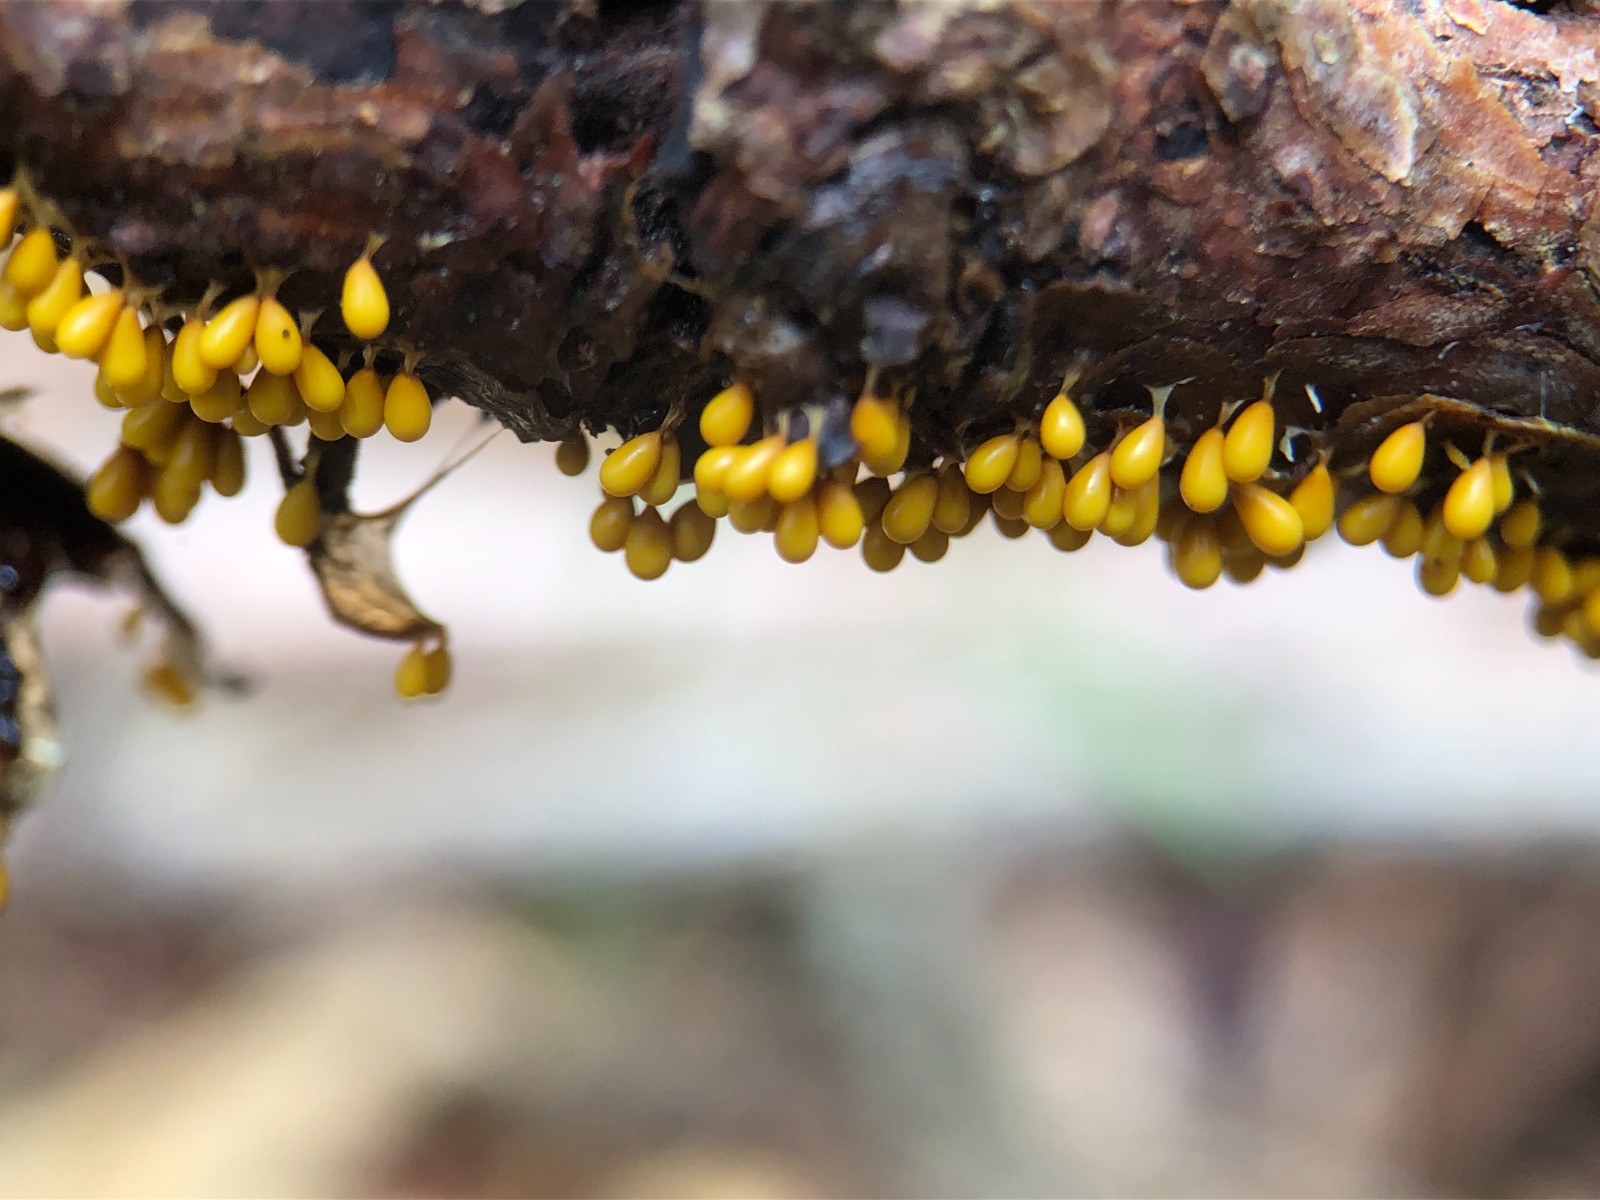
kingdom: Protozoa
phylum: Mycetozoa
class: Myxomycetes
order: Physarales
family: Physaraceae
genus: Leocarpus
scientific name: Leocarpus fragilis
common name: poleret glatfrø
